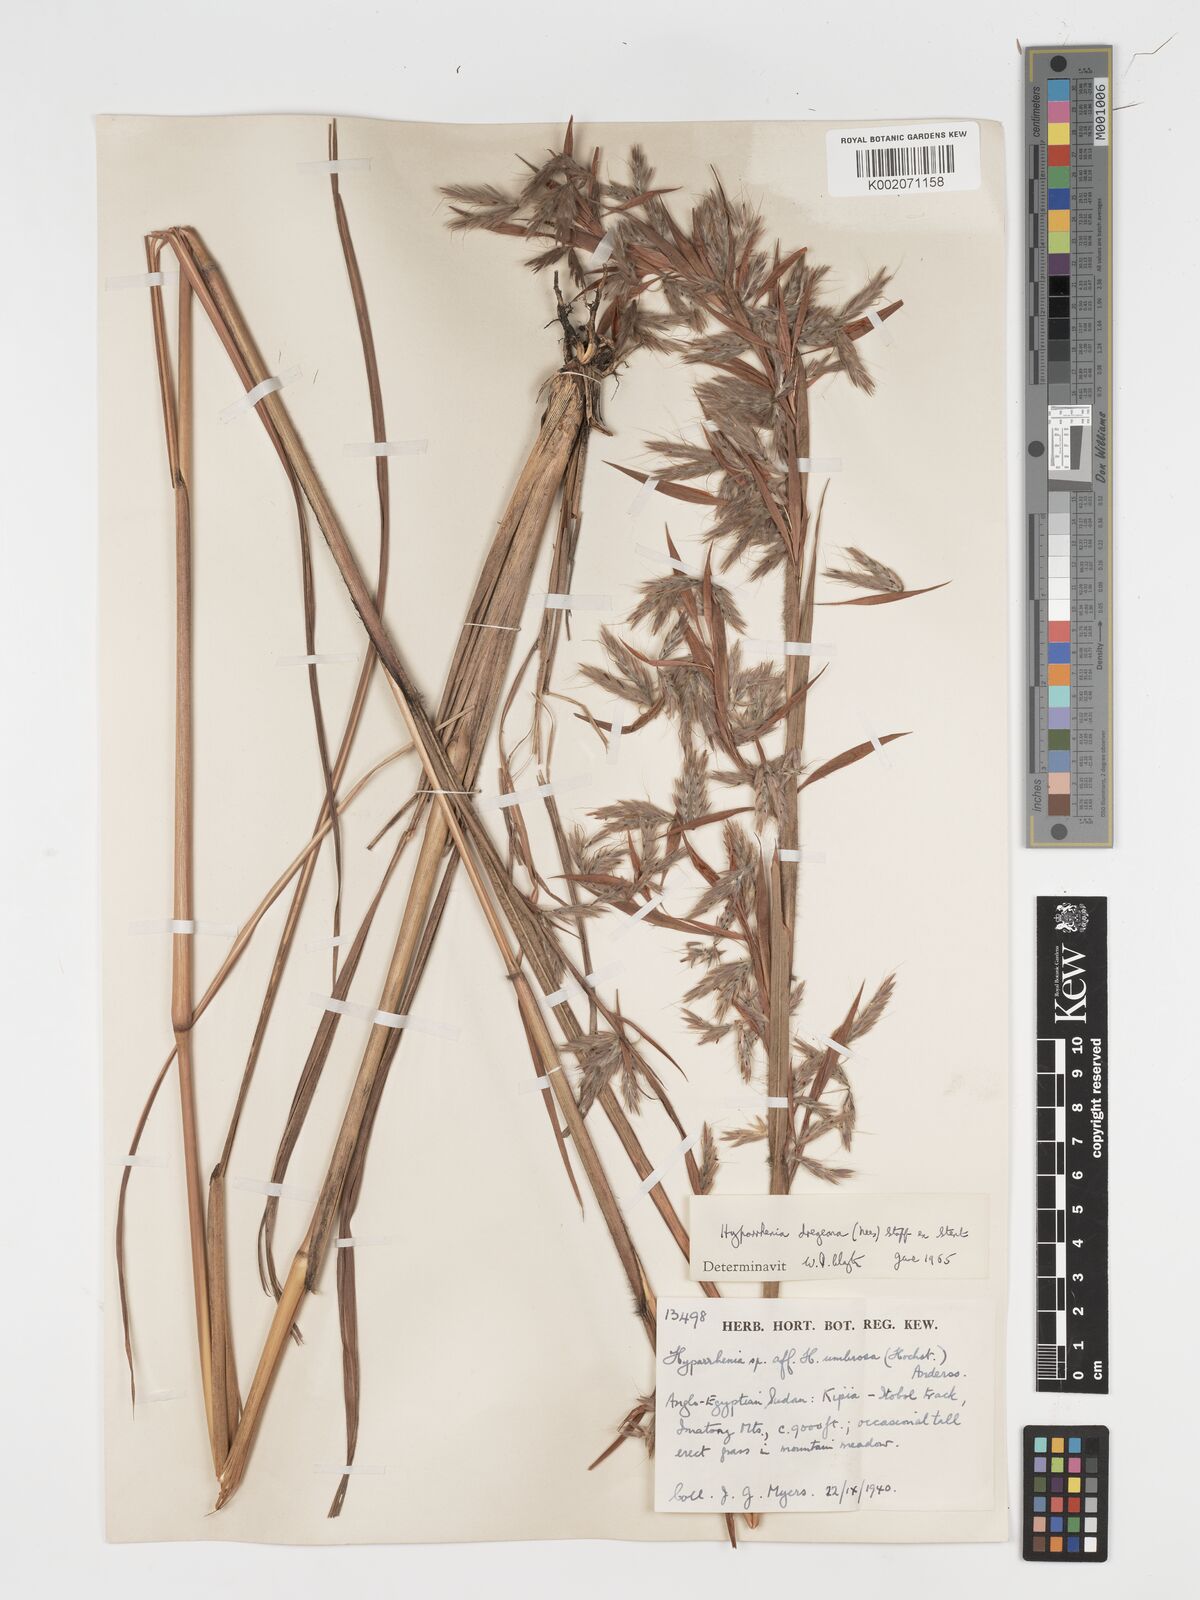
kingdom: Plantae
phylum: Tracheophyta
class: Liliopsida
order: Poales
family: Poaceae
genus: Hyparrhenia
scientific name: Hyparrhenia dregeana
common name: Silky thatching grass
